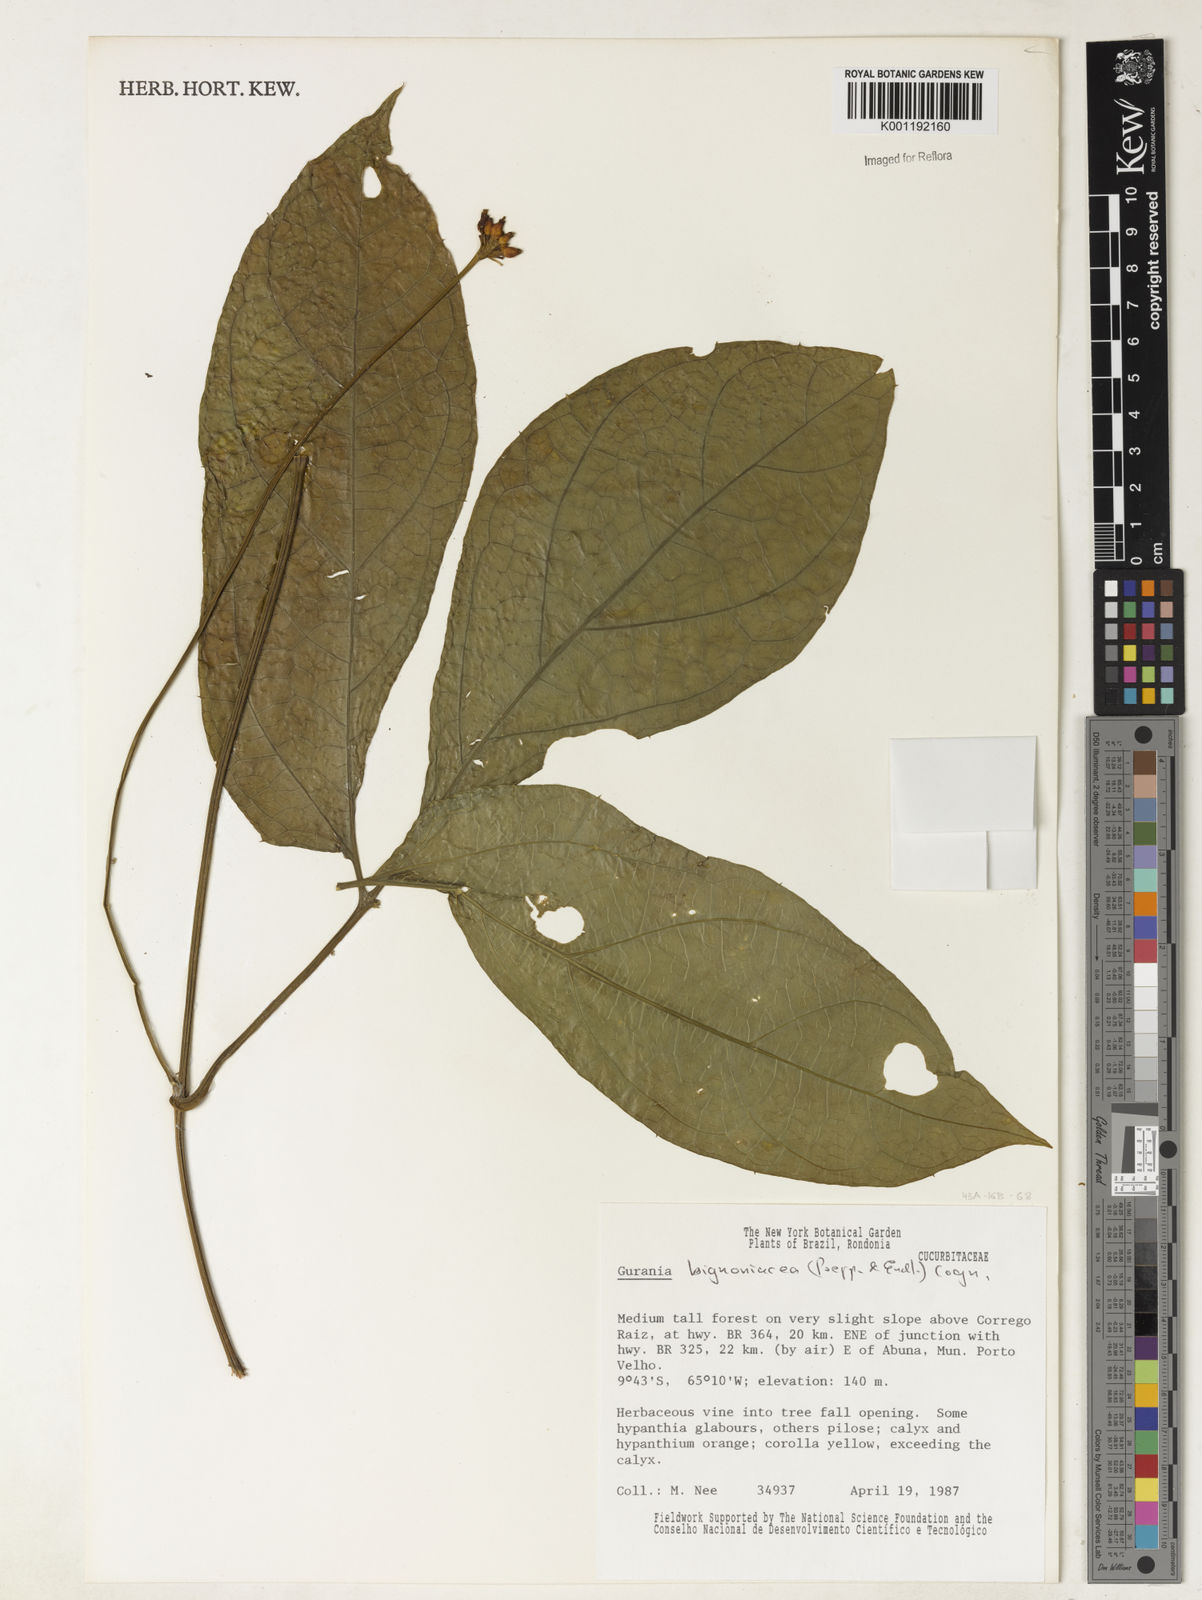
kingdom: Plantae
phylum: Tracheophyta
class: Magnoliopsida
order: Cucurbitales
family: Cucurbitaceae
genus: Gurania
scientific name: Gurania bignoniacea
